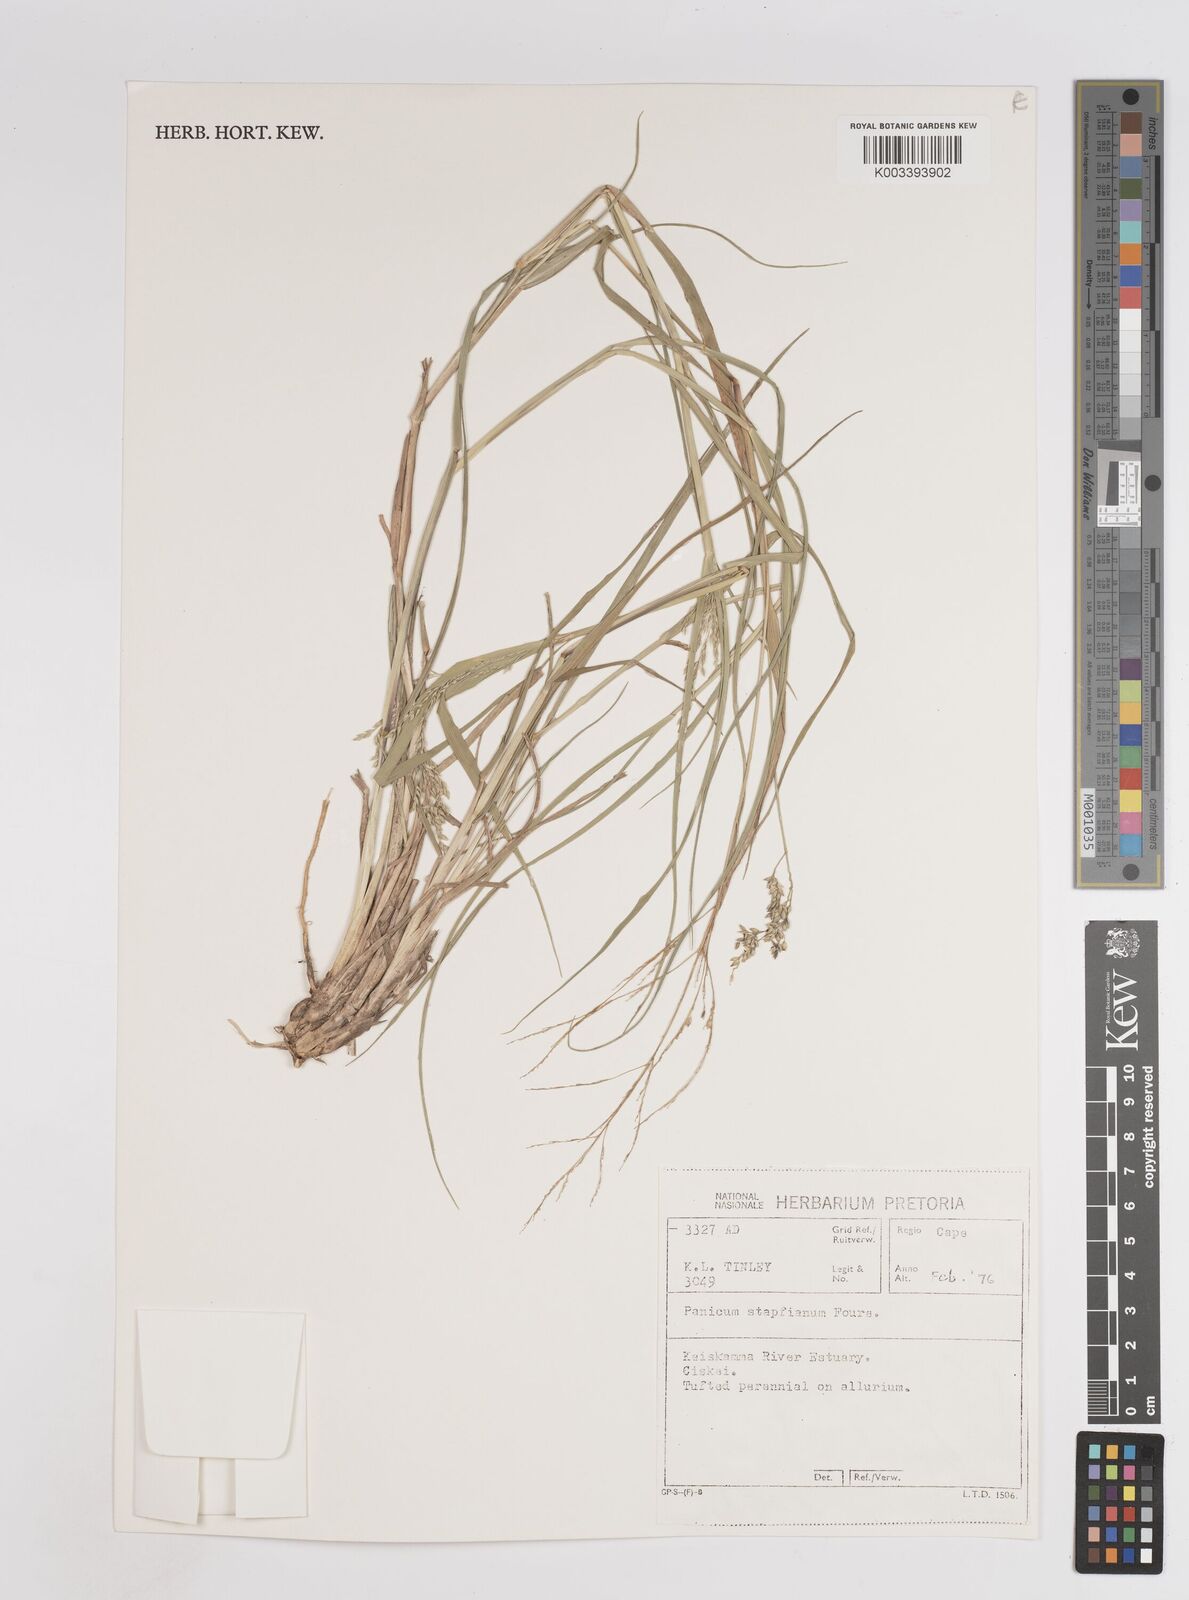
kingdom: Plantae
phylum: Tracheophyta
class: Liliopsida
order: Poales
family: Poaceae
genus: Panicum
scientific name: Panicum stapfianum
